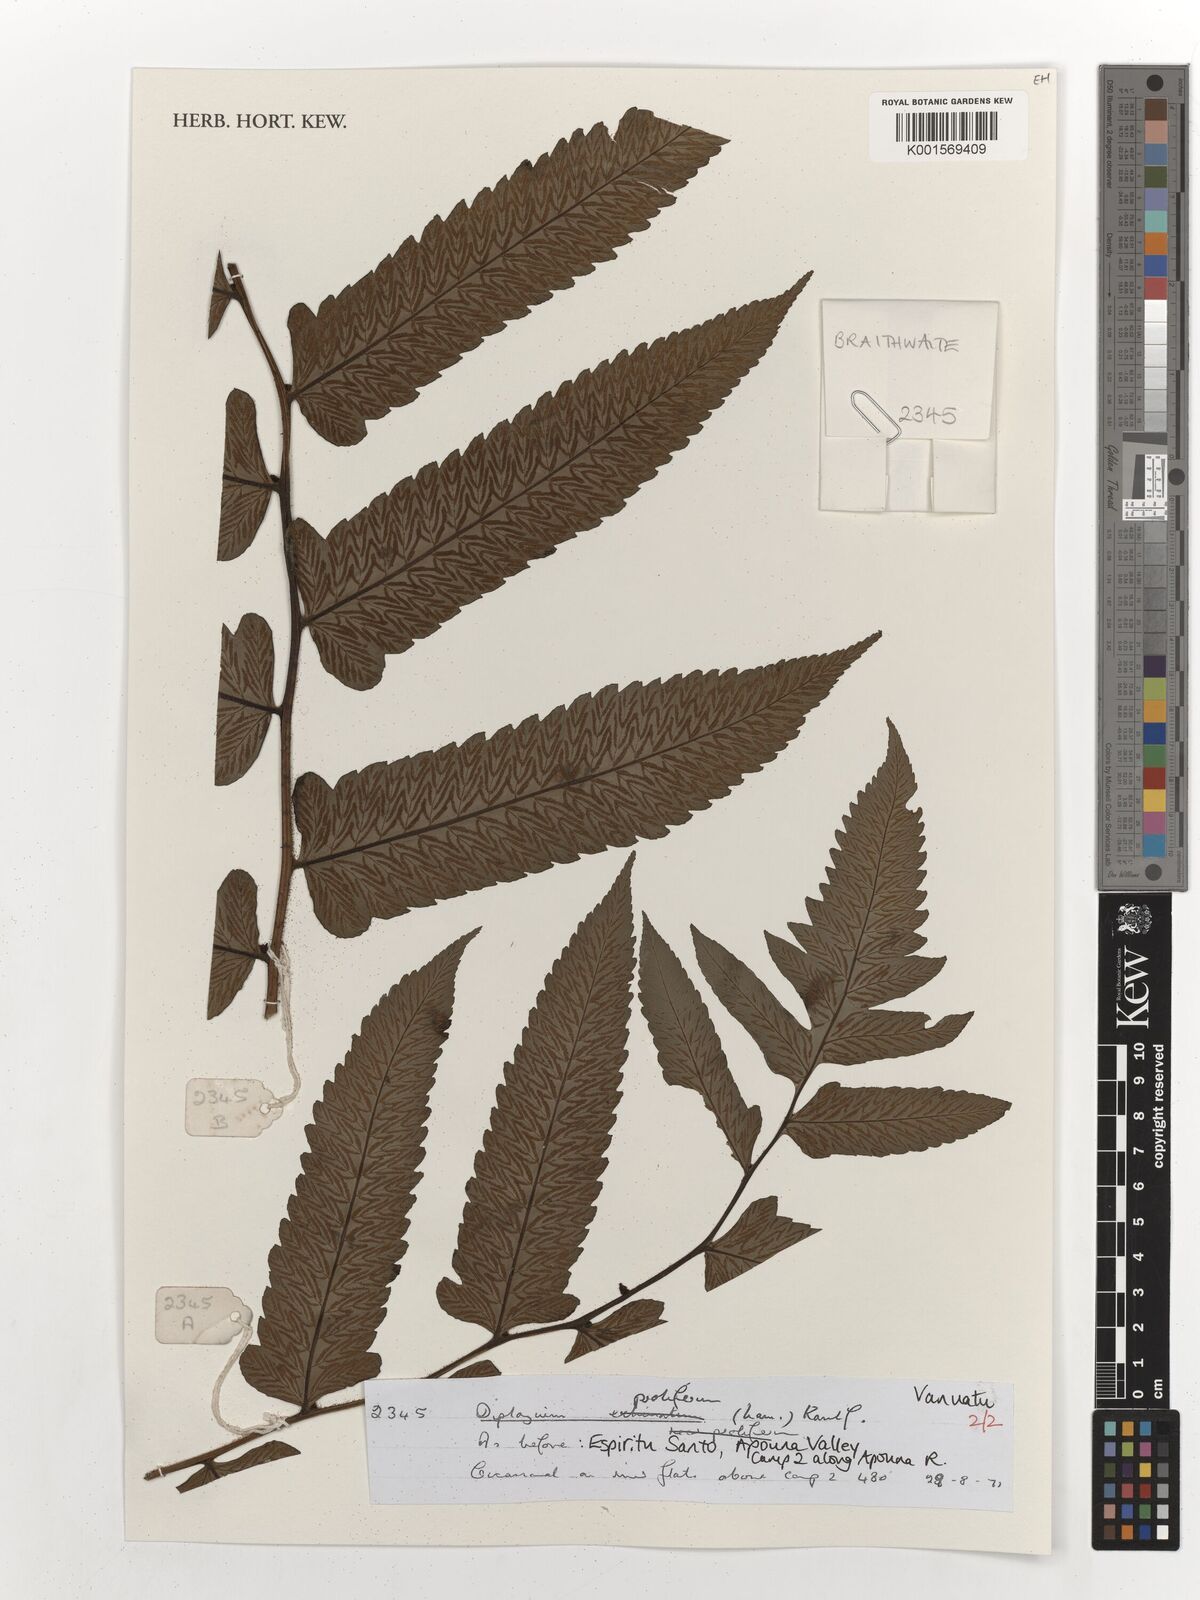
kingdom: Plantae
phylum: Tracheophyta
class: Polypodiopsida
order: Polypodiales
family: Athyriaceae
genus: Diplazium
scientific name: Diplazium proliferum
